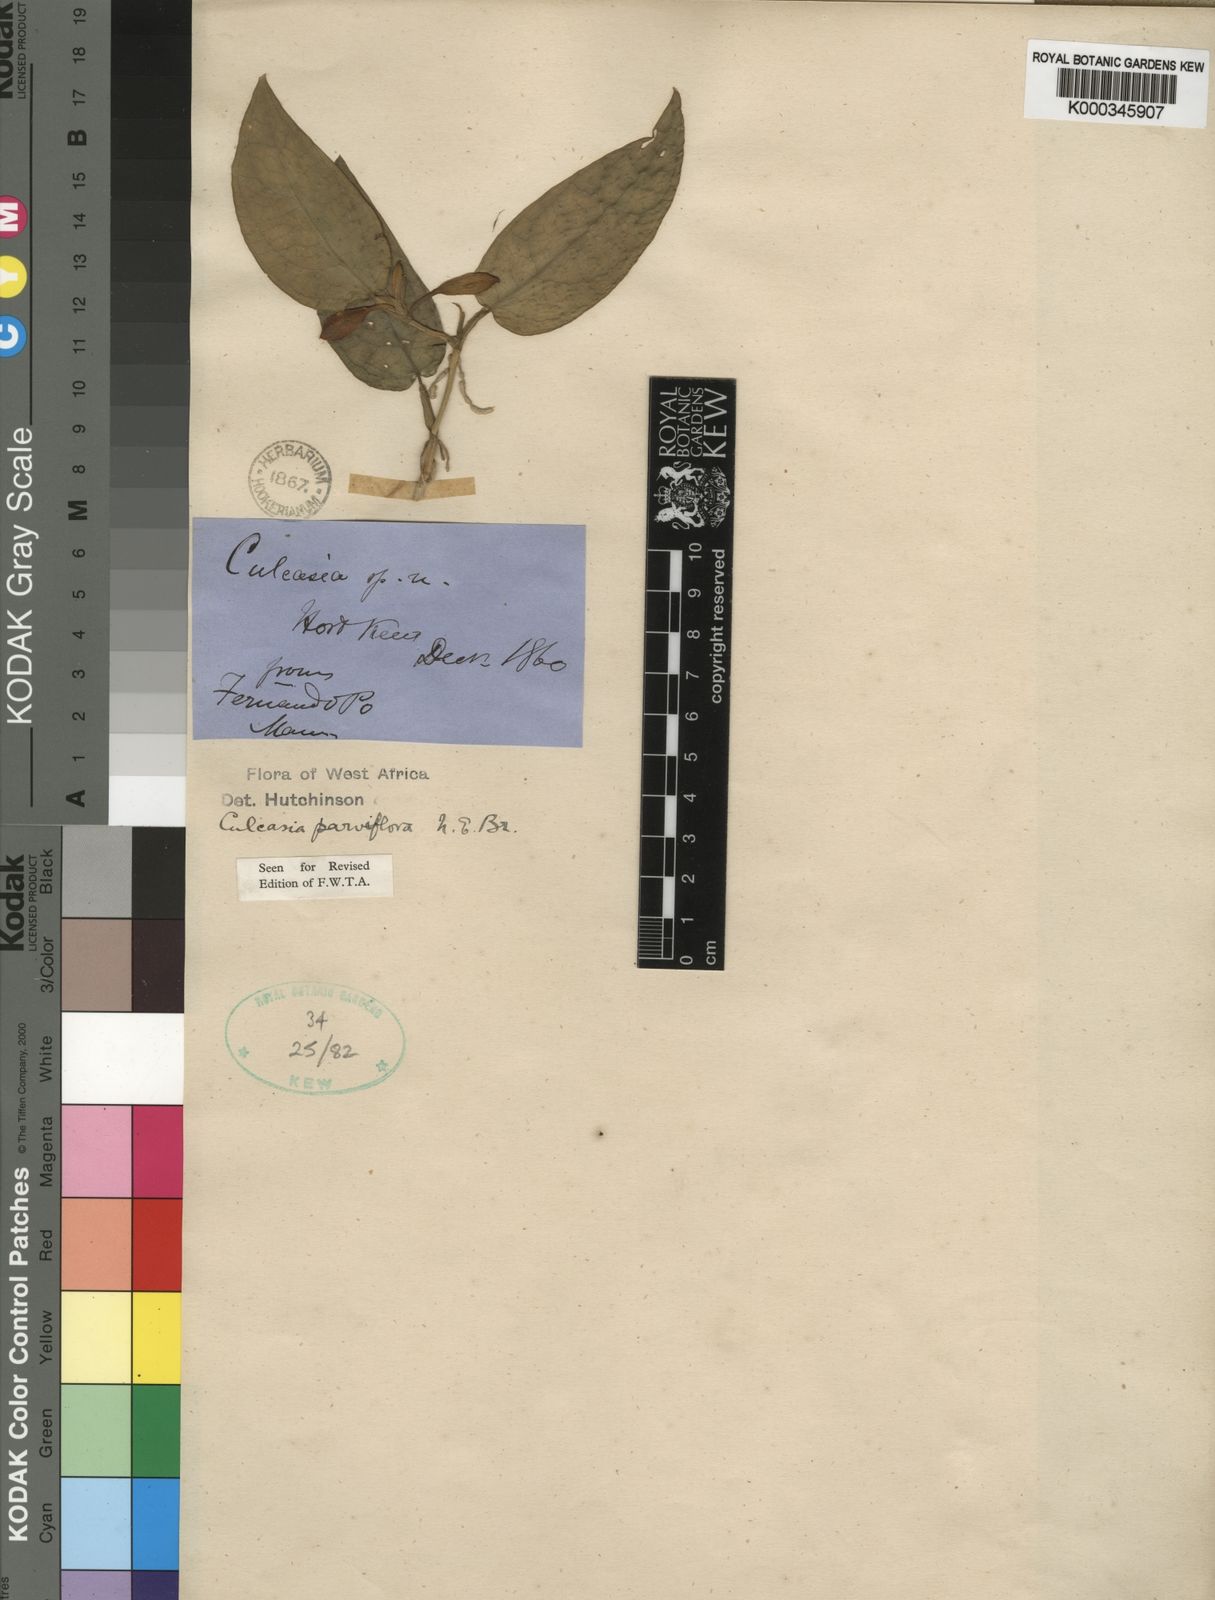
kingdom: Plantae
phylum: Tracheophyta
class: Liliopsida
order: Alismatales
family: Araceae
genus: Culcasia
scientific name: Culcasia parviflora
